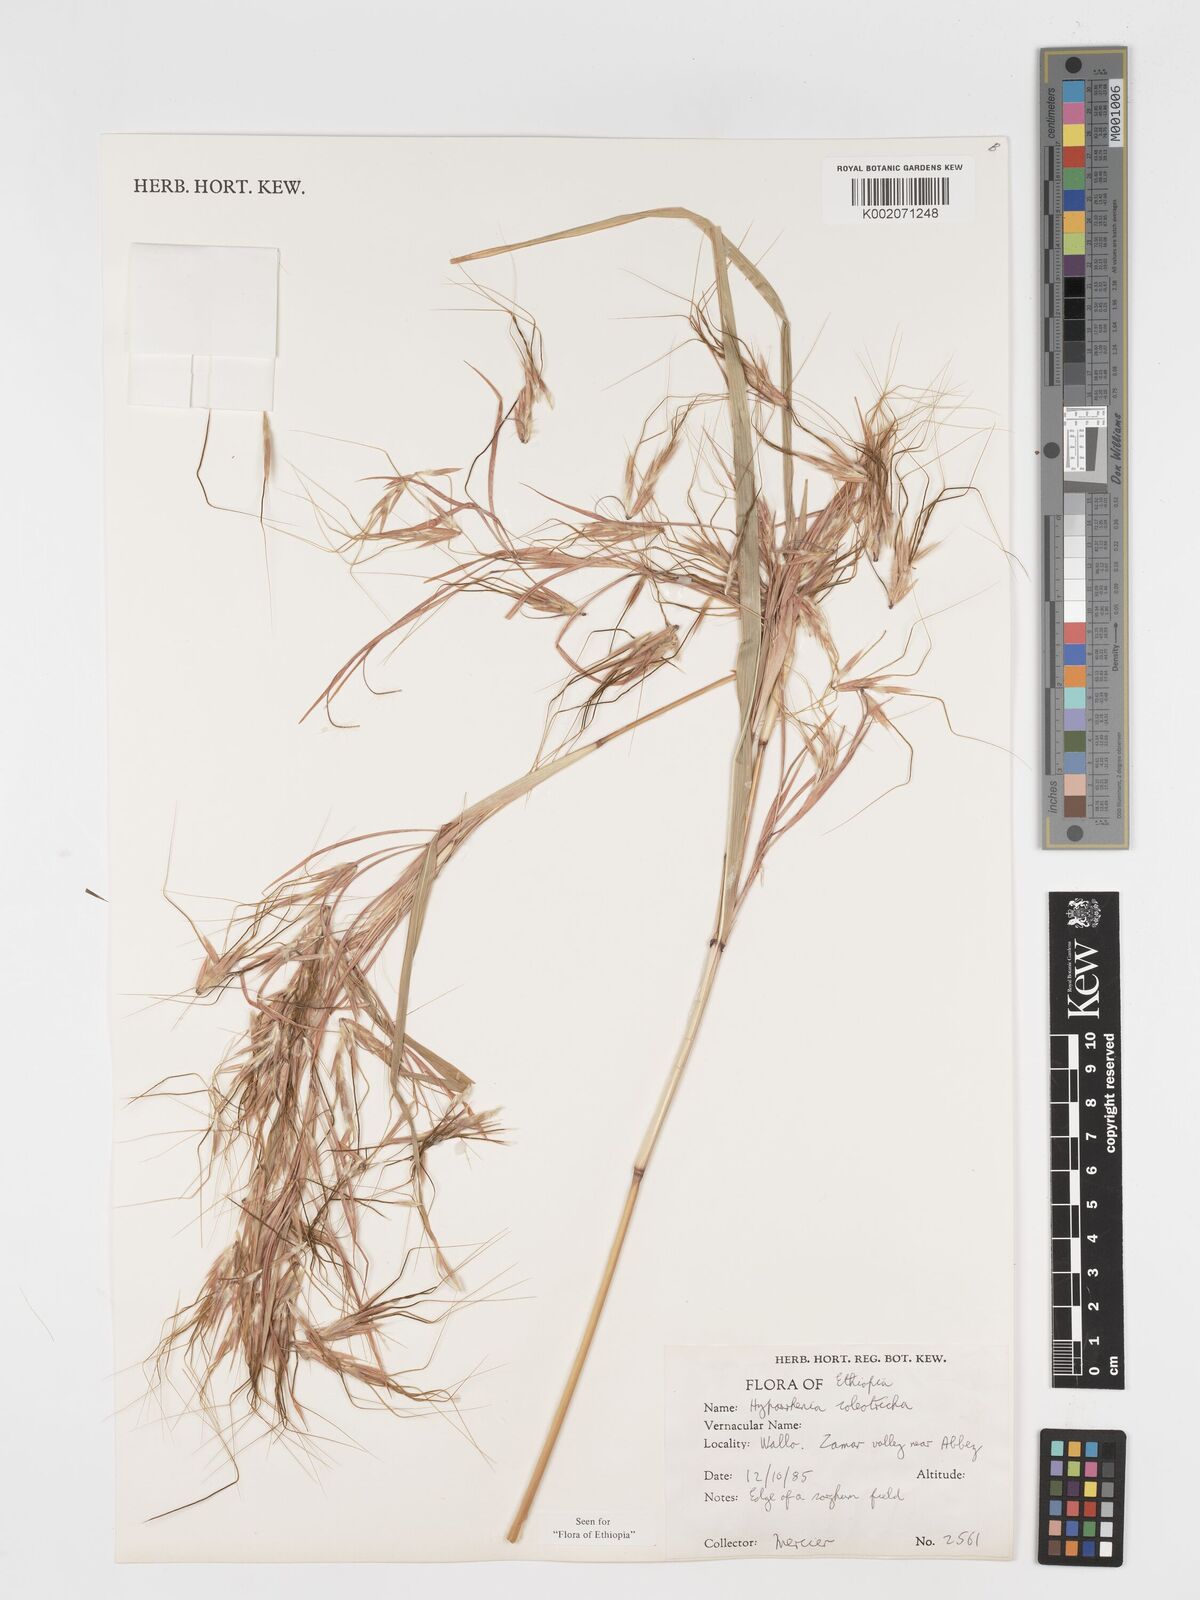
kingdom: Plantae
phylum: Tracheophyta
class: Liliopsida
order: Poales
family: Poaceae
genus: Hyparrhenia
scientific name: Hyparrhenia coleotricha
